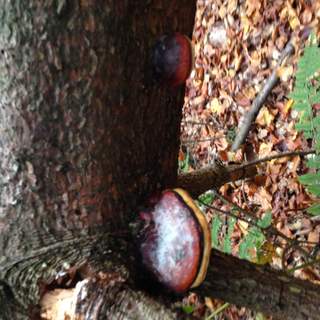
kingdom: Fungi
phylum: Basidiomycota
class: Agaricomycetes
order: Polyporales
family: Fomitopsidaceae
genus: Fomitopsis
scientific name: Fomitopsis pinicola
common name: randbæltet hovporesvamp
